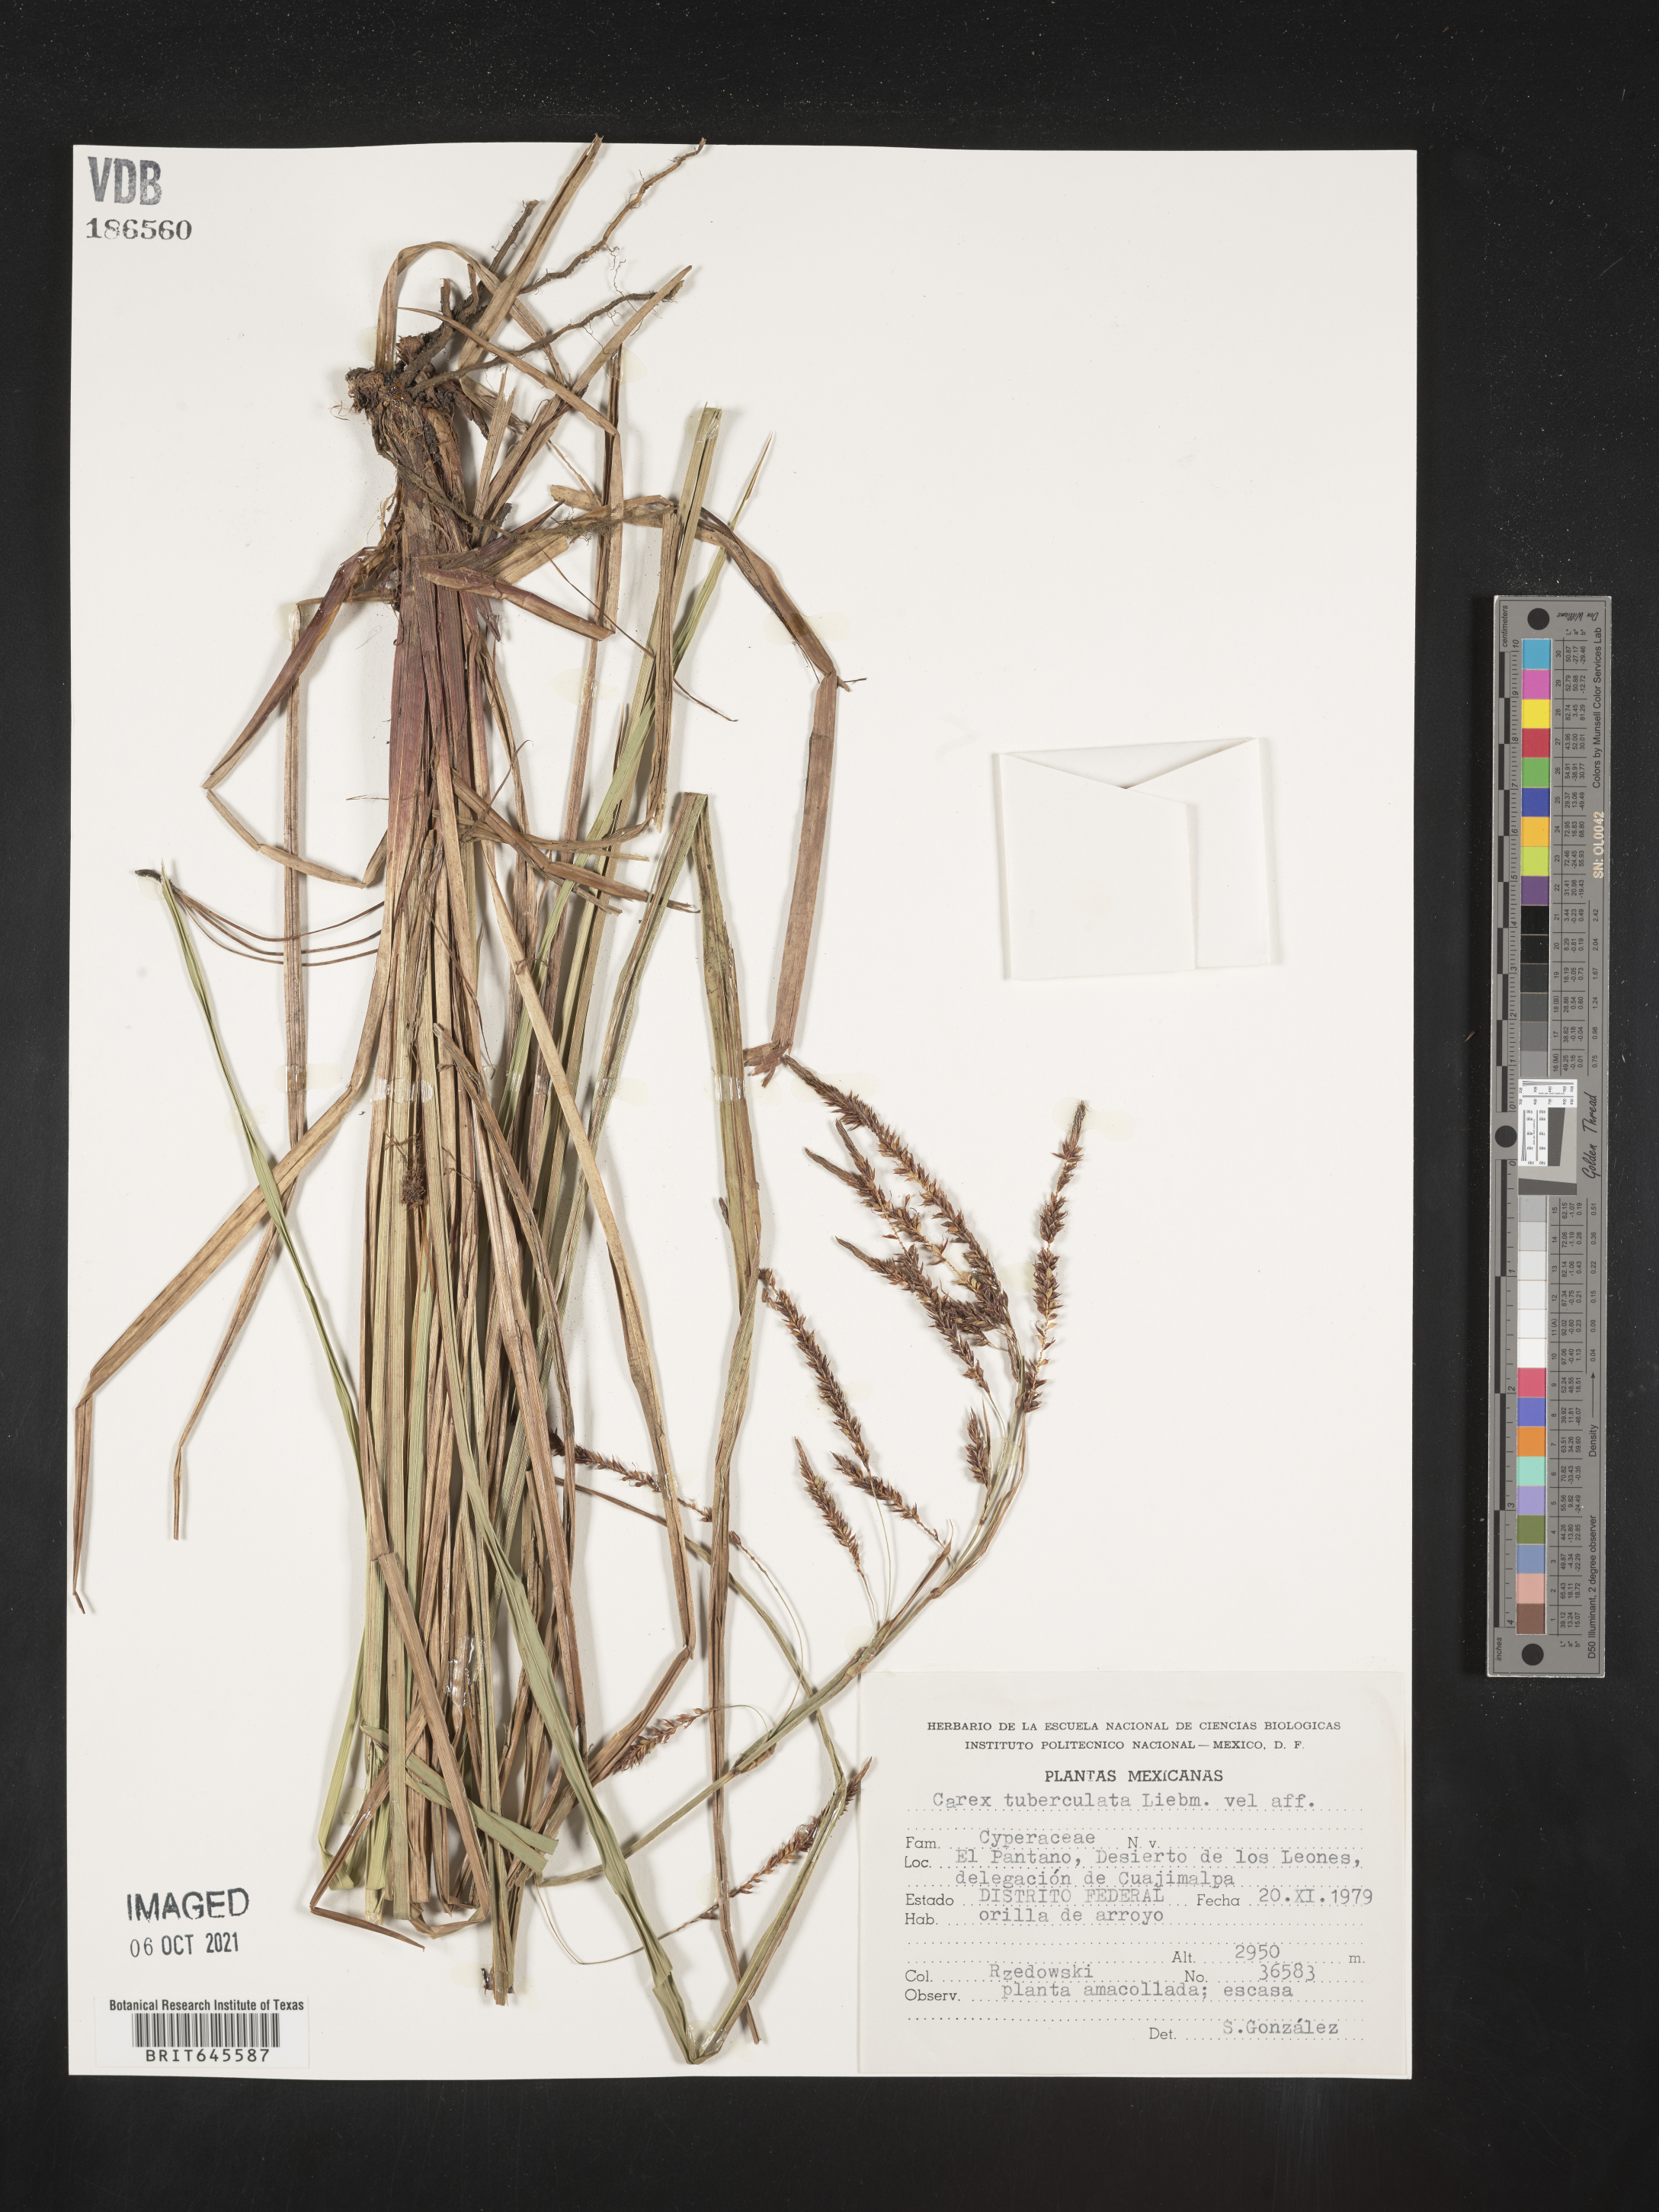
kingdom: Plantae
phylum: Tracheophyta
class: Liliopsida
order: Poales
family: Cyperaceae
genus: Carex
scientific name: Carex
